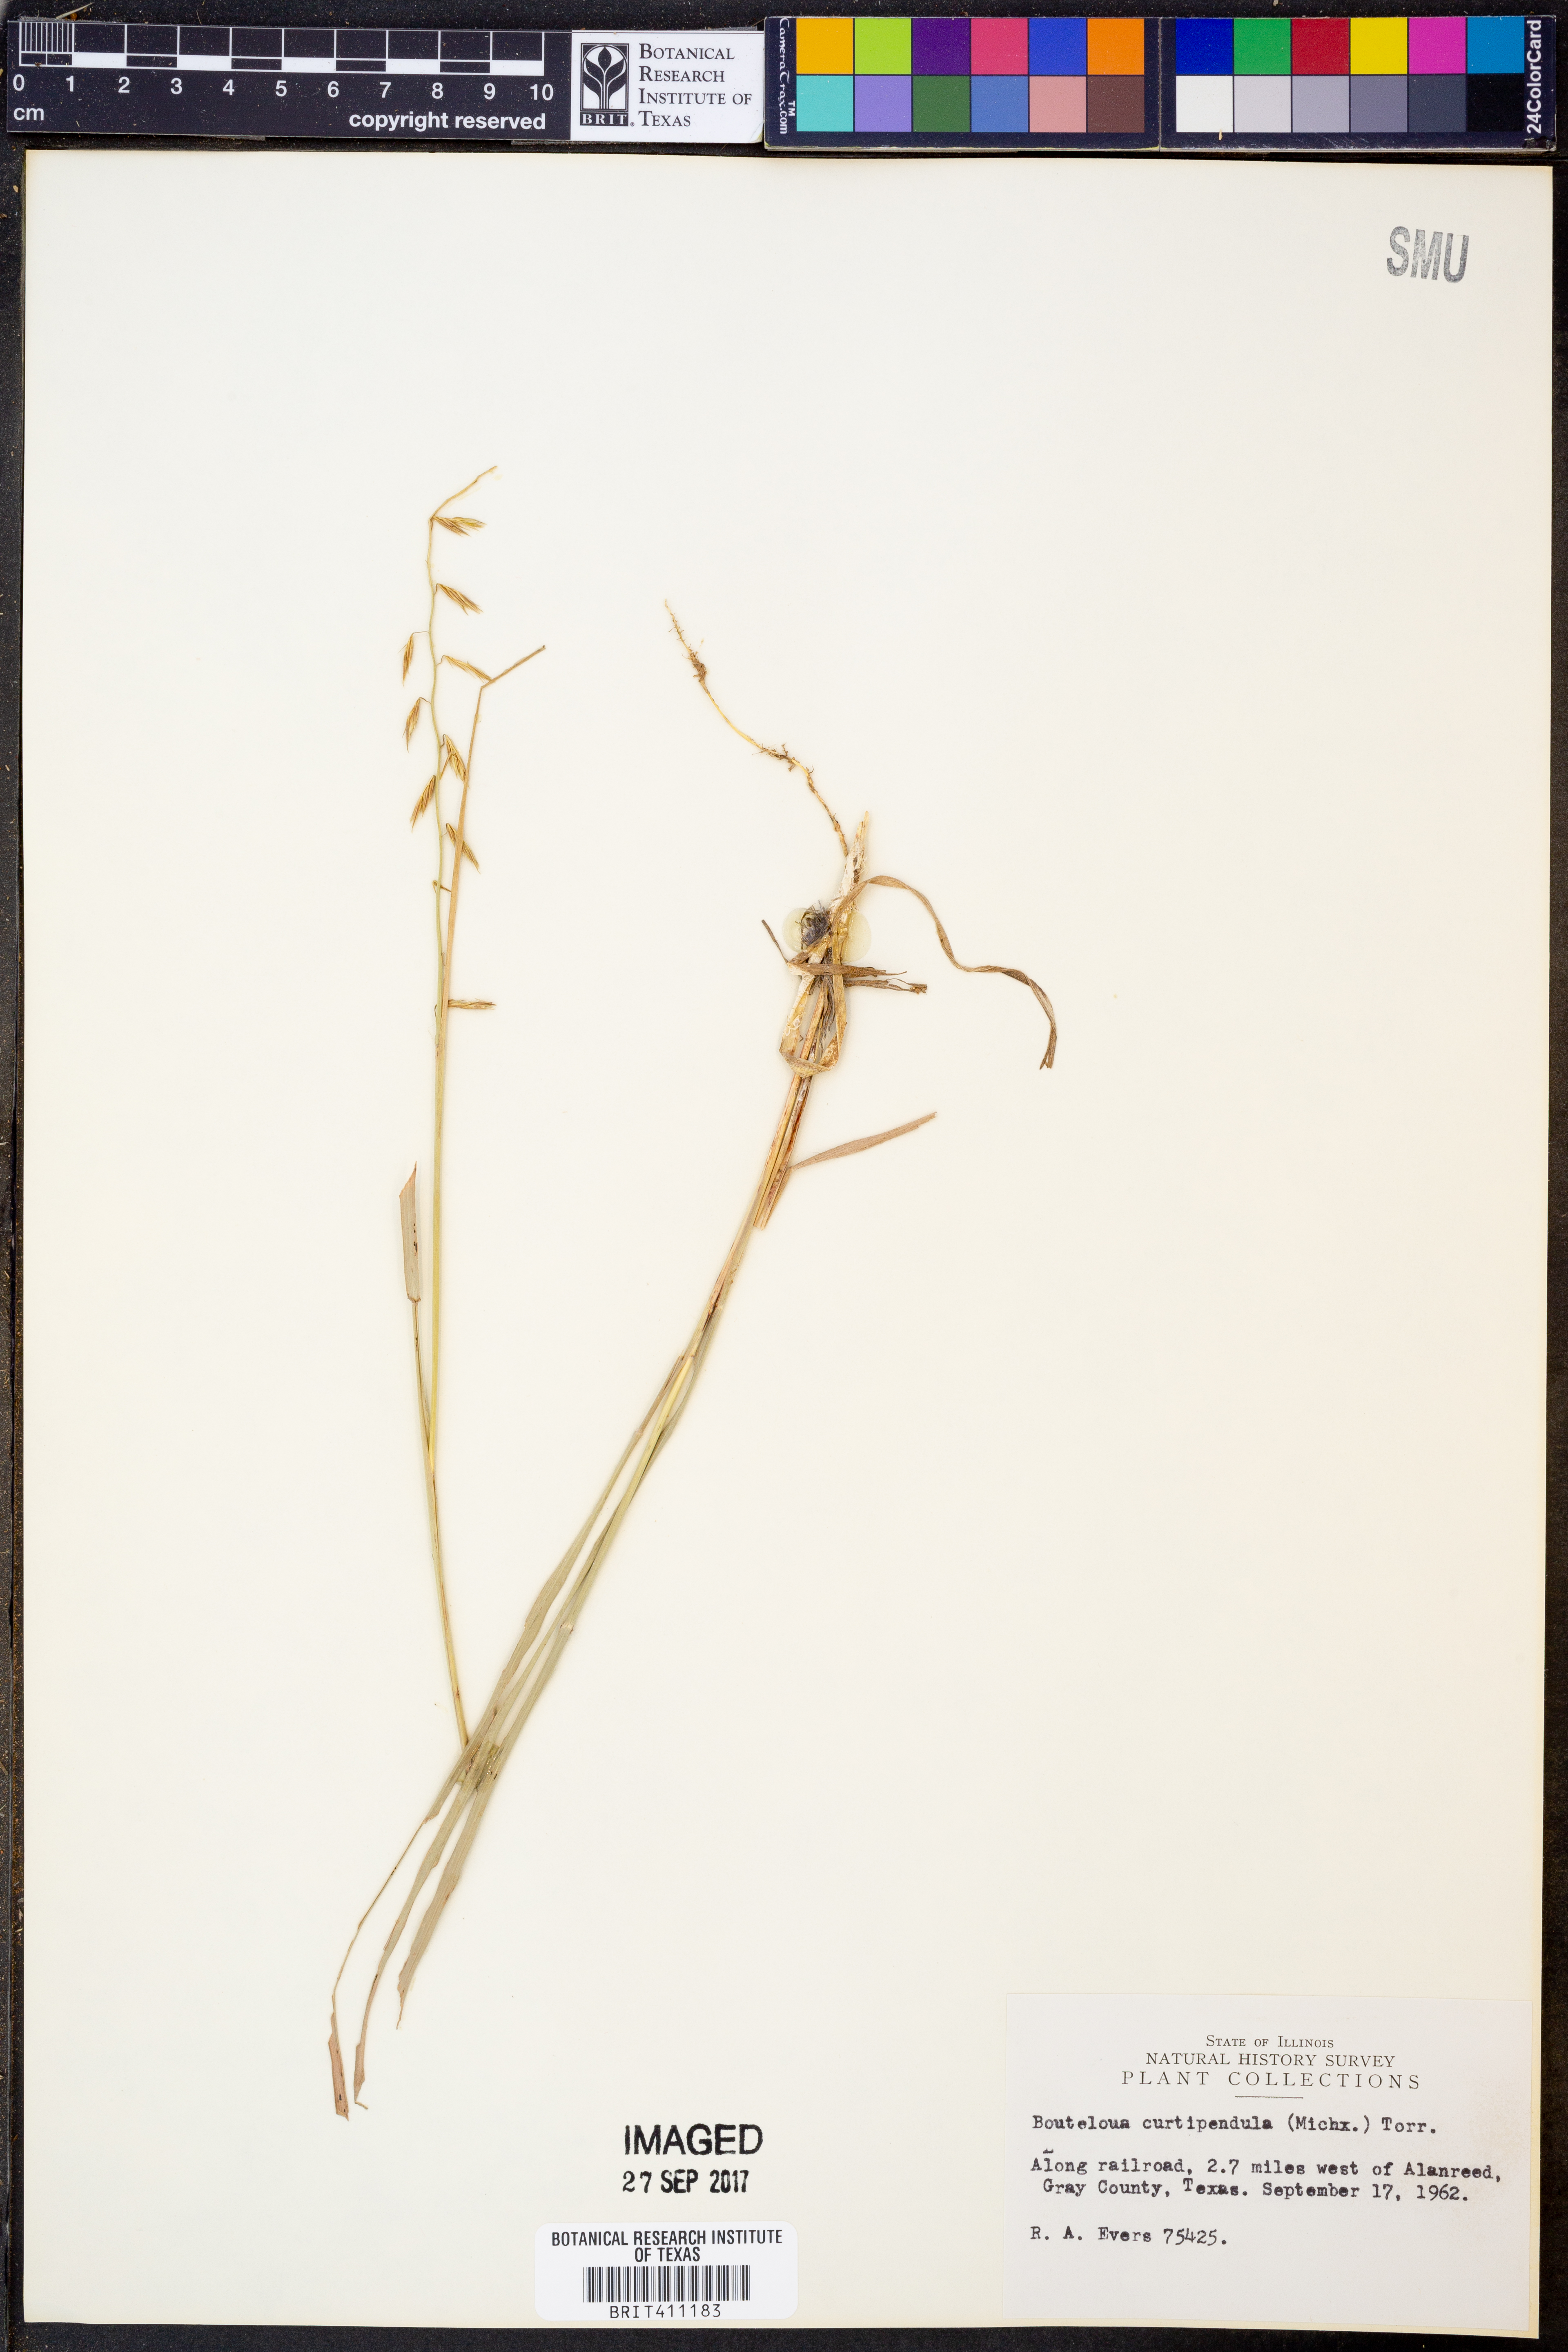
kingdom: Plantae
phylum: Tracheophyta
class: Liliopsida
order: Poales
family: Poaceae
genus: Bouteloua
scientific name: Bouteloua curtipendula
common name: Side-oats grama
